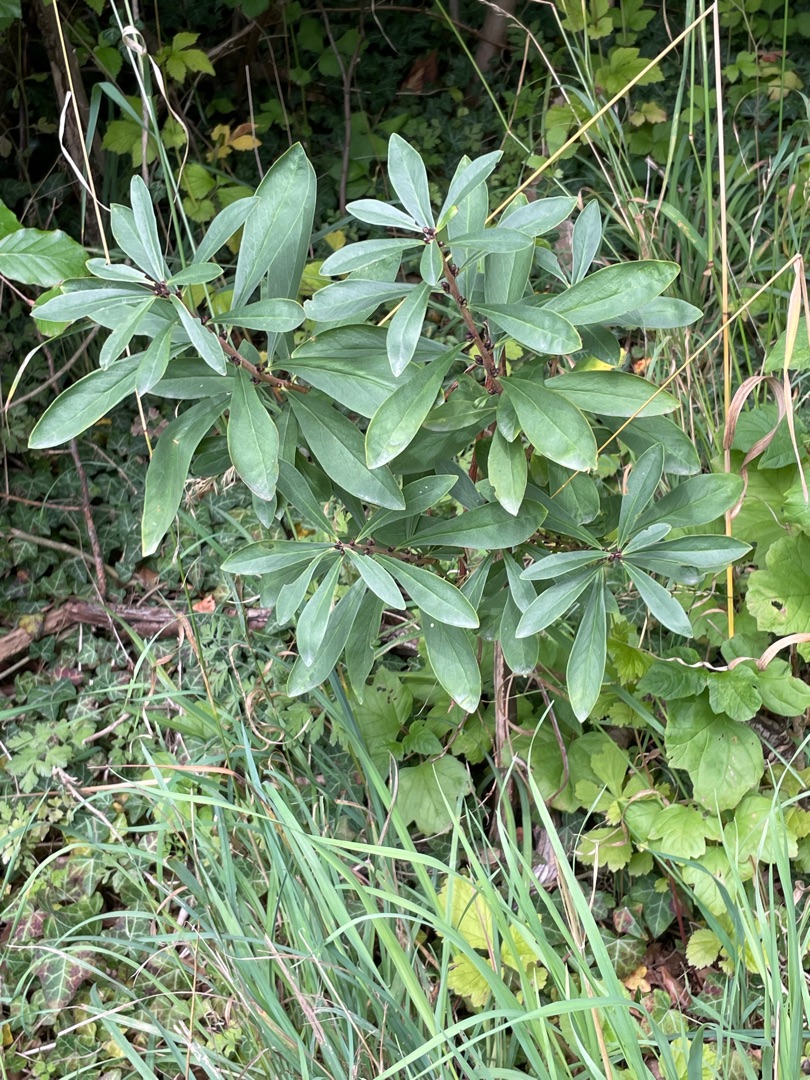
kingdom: Plantae
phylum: Tracheophyta
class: Magnoliopsida
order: Malvales
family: Thymelaeaceae
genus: Daphne
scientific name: Daphne mezereum
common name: Pebertræ
